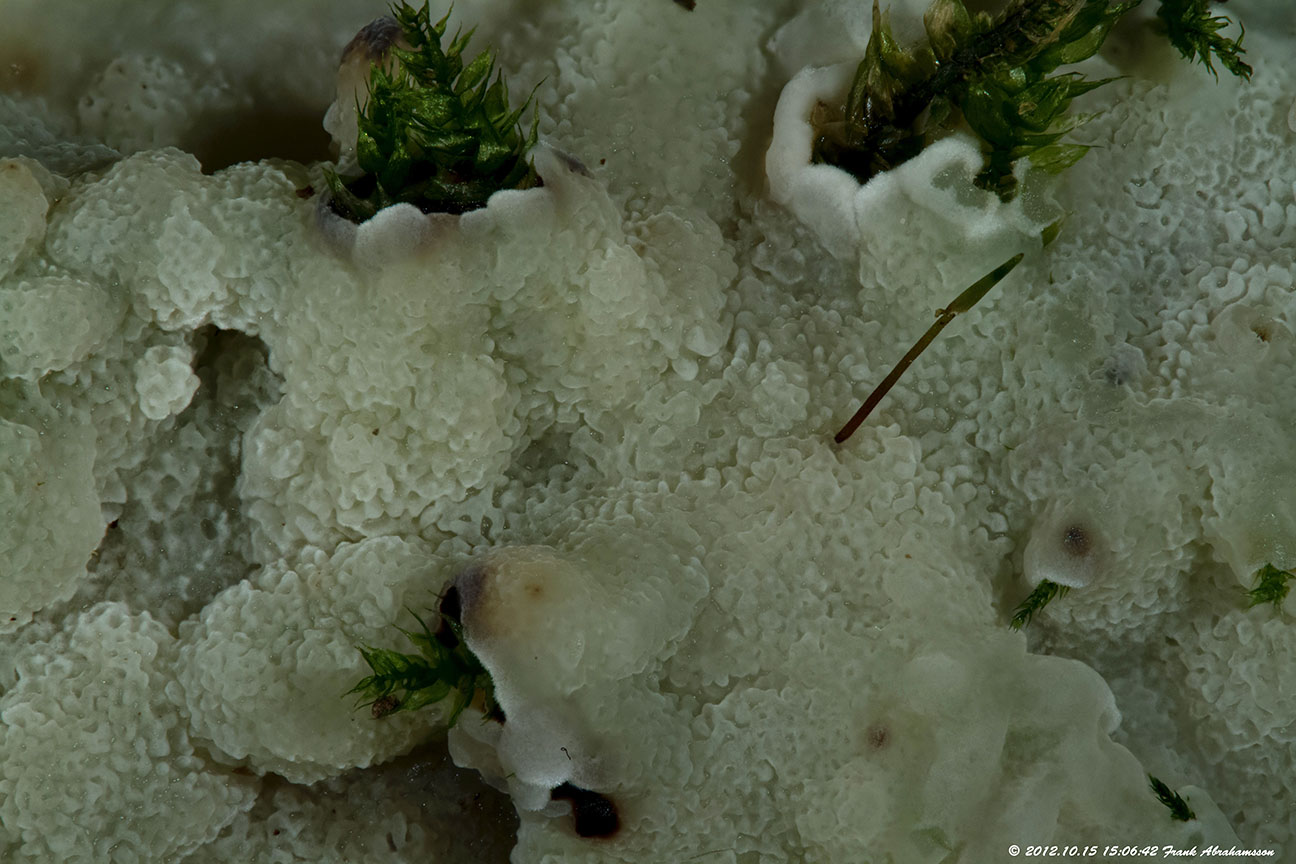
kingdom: Fungi
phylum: Basidiomycota
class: Agaricomycetes
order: Polyporales
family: Meruliaceae
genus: Physisporinus
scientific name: Physisporinus vitreus
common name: mastesvamp
